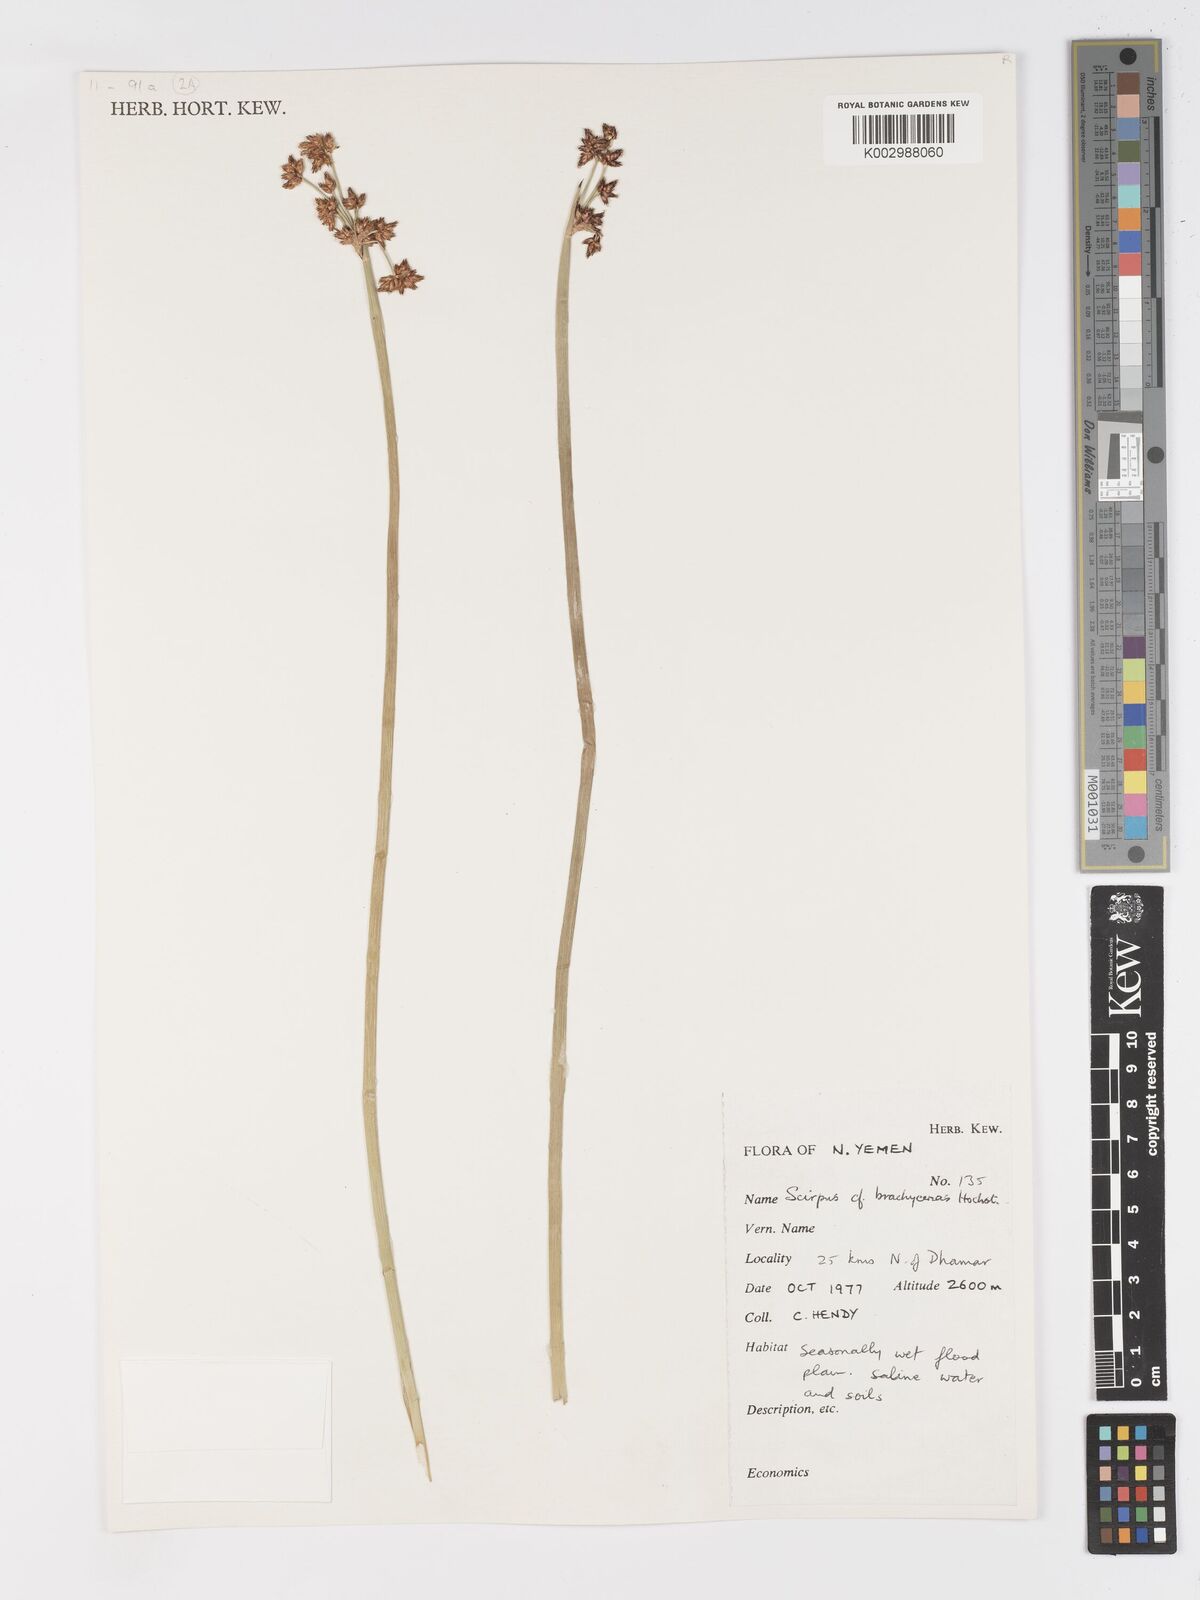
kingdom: Plantae
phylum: Tracheophyta
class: Liliopsida
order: Poales
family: Cyperaceae
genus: Schoenoplectiella
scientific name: Schoenoplectiella brachyceras
